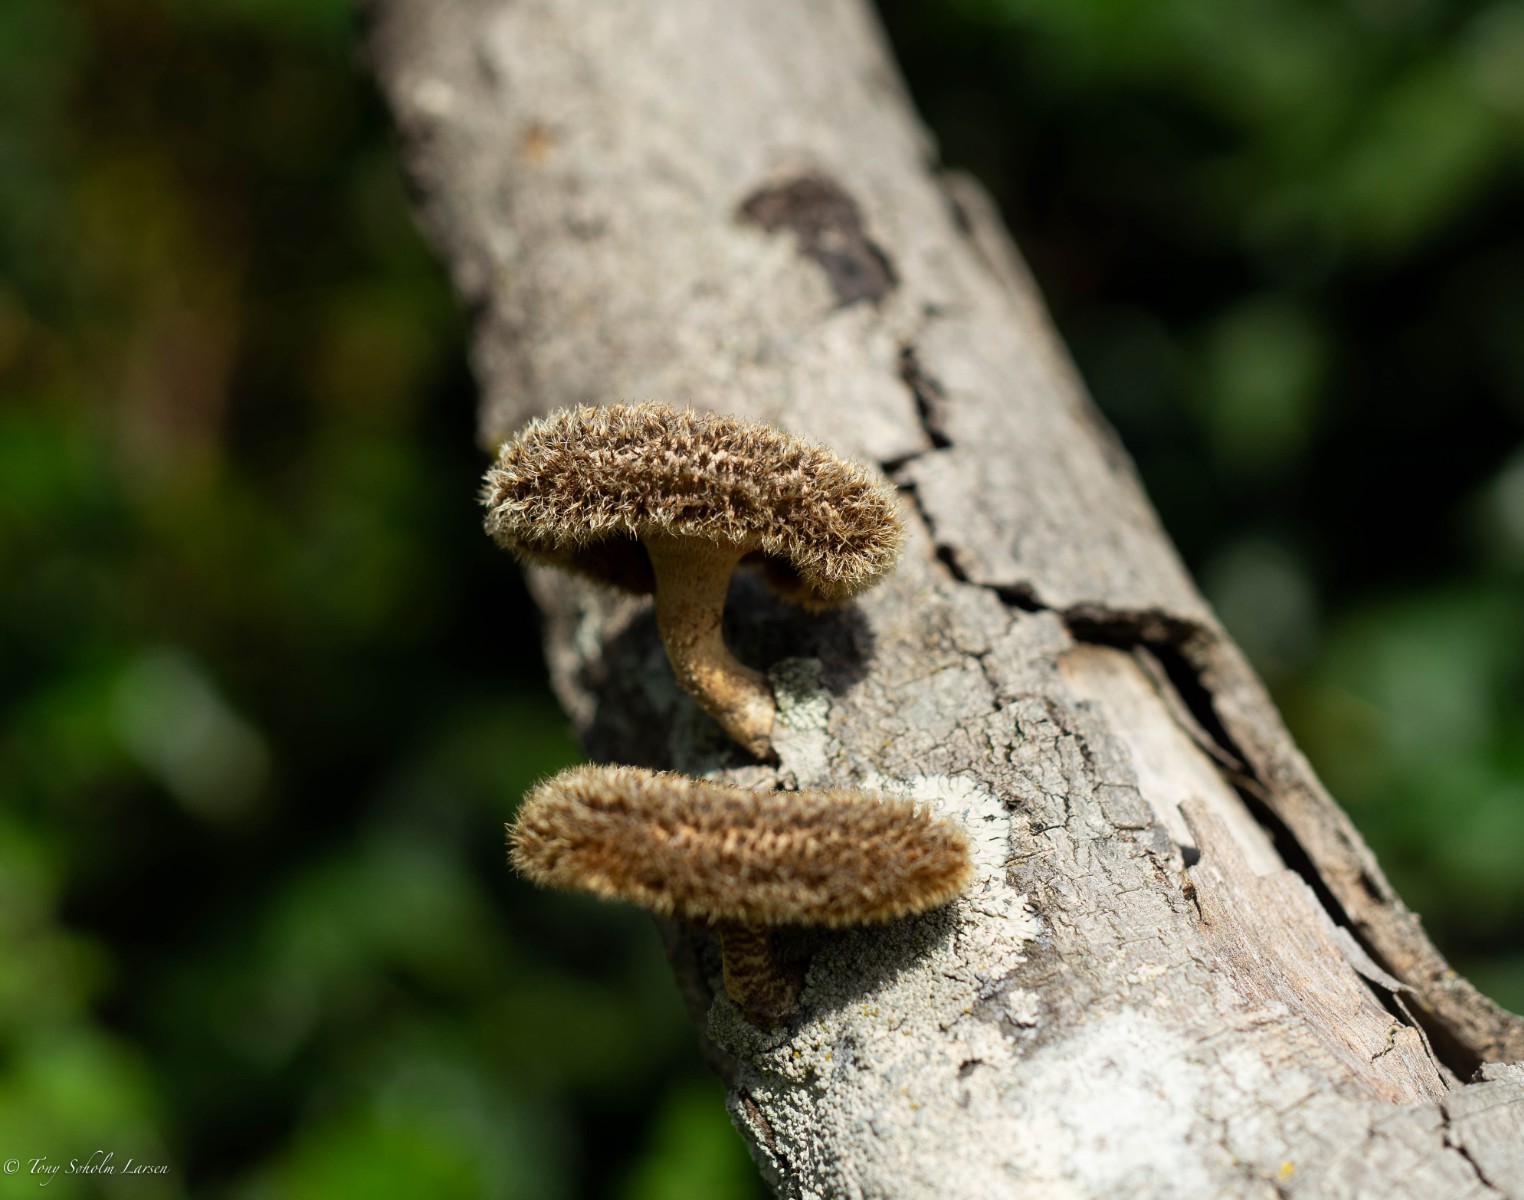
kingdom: Fungi
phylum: Basidiomycota
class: Agaricomycetes
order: Polyporales
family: Polyporaceae
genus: Lentinus
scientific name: Lentinus
